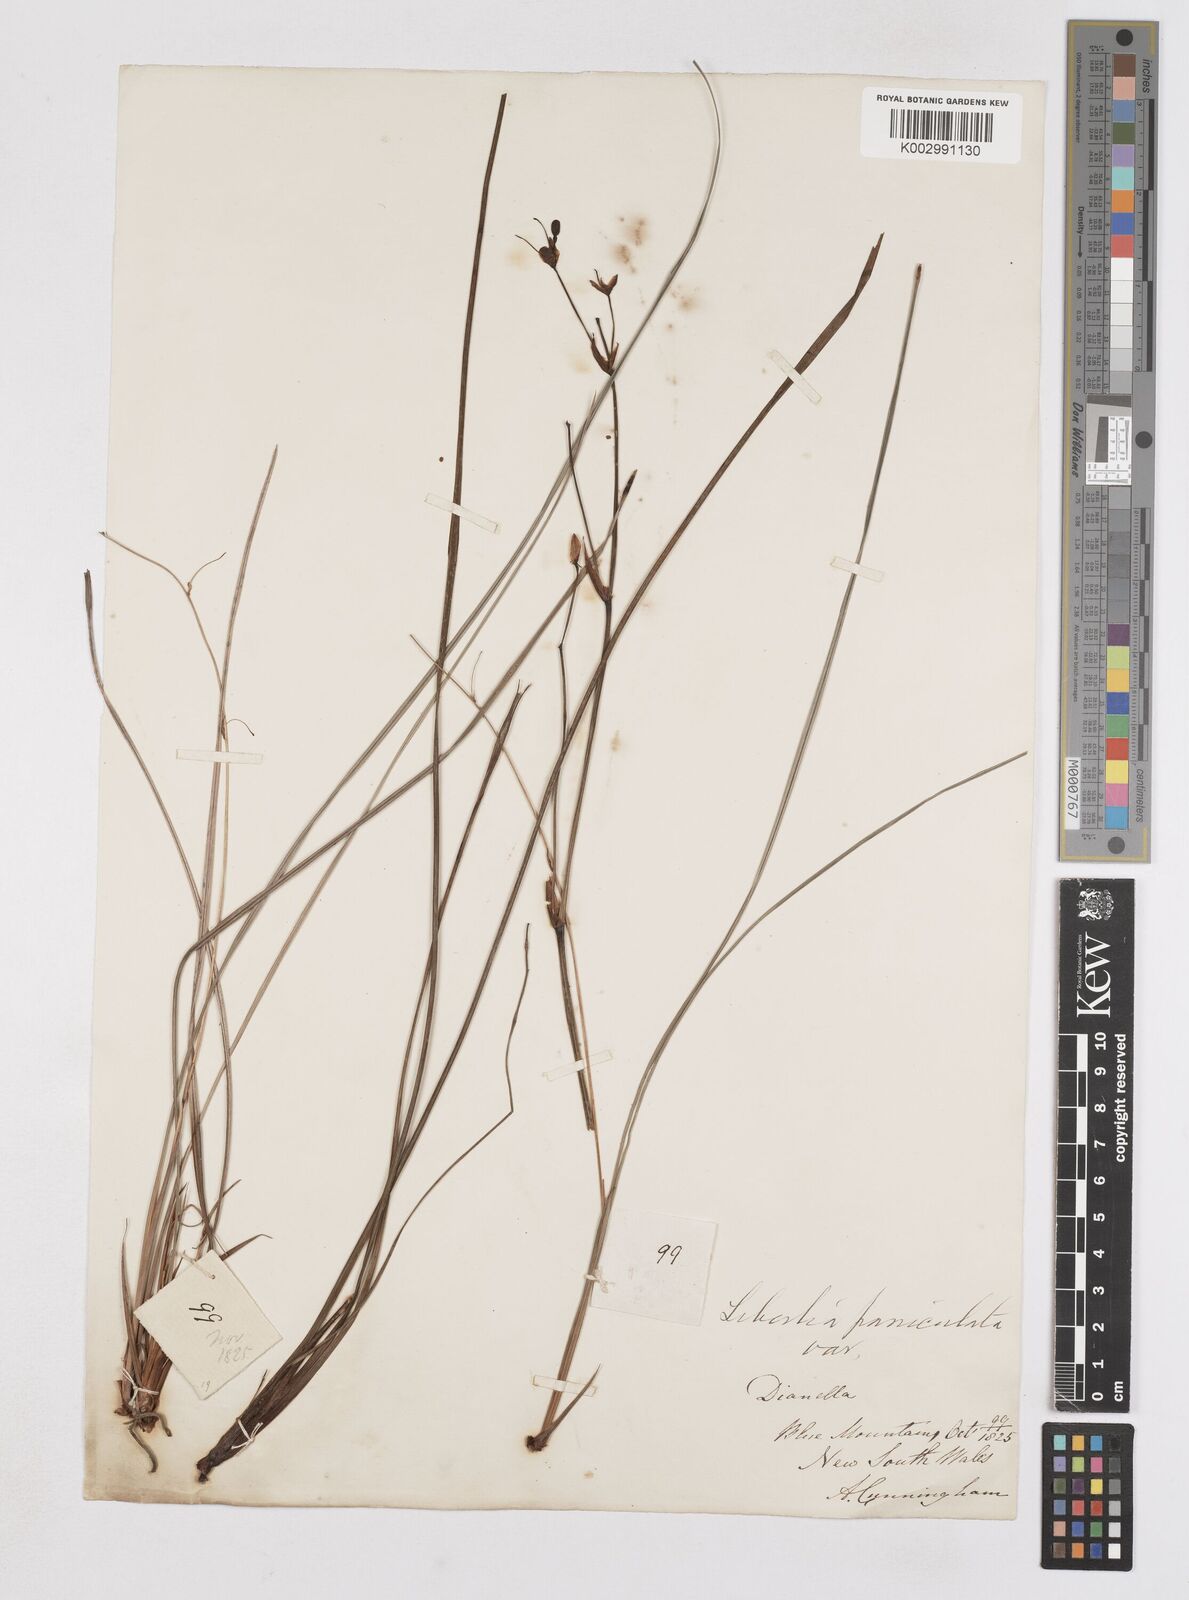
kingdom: Plantae
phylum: Tracheophyta
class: Liliopsida
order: Asparagales
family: Iridaceae
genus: Libertia
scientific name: Libertia paniculata
